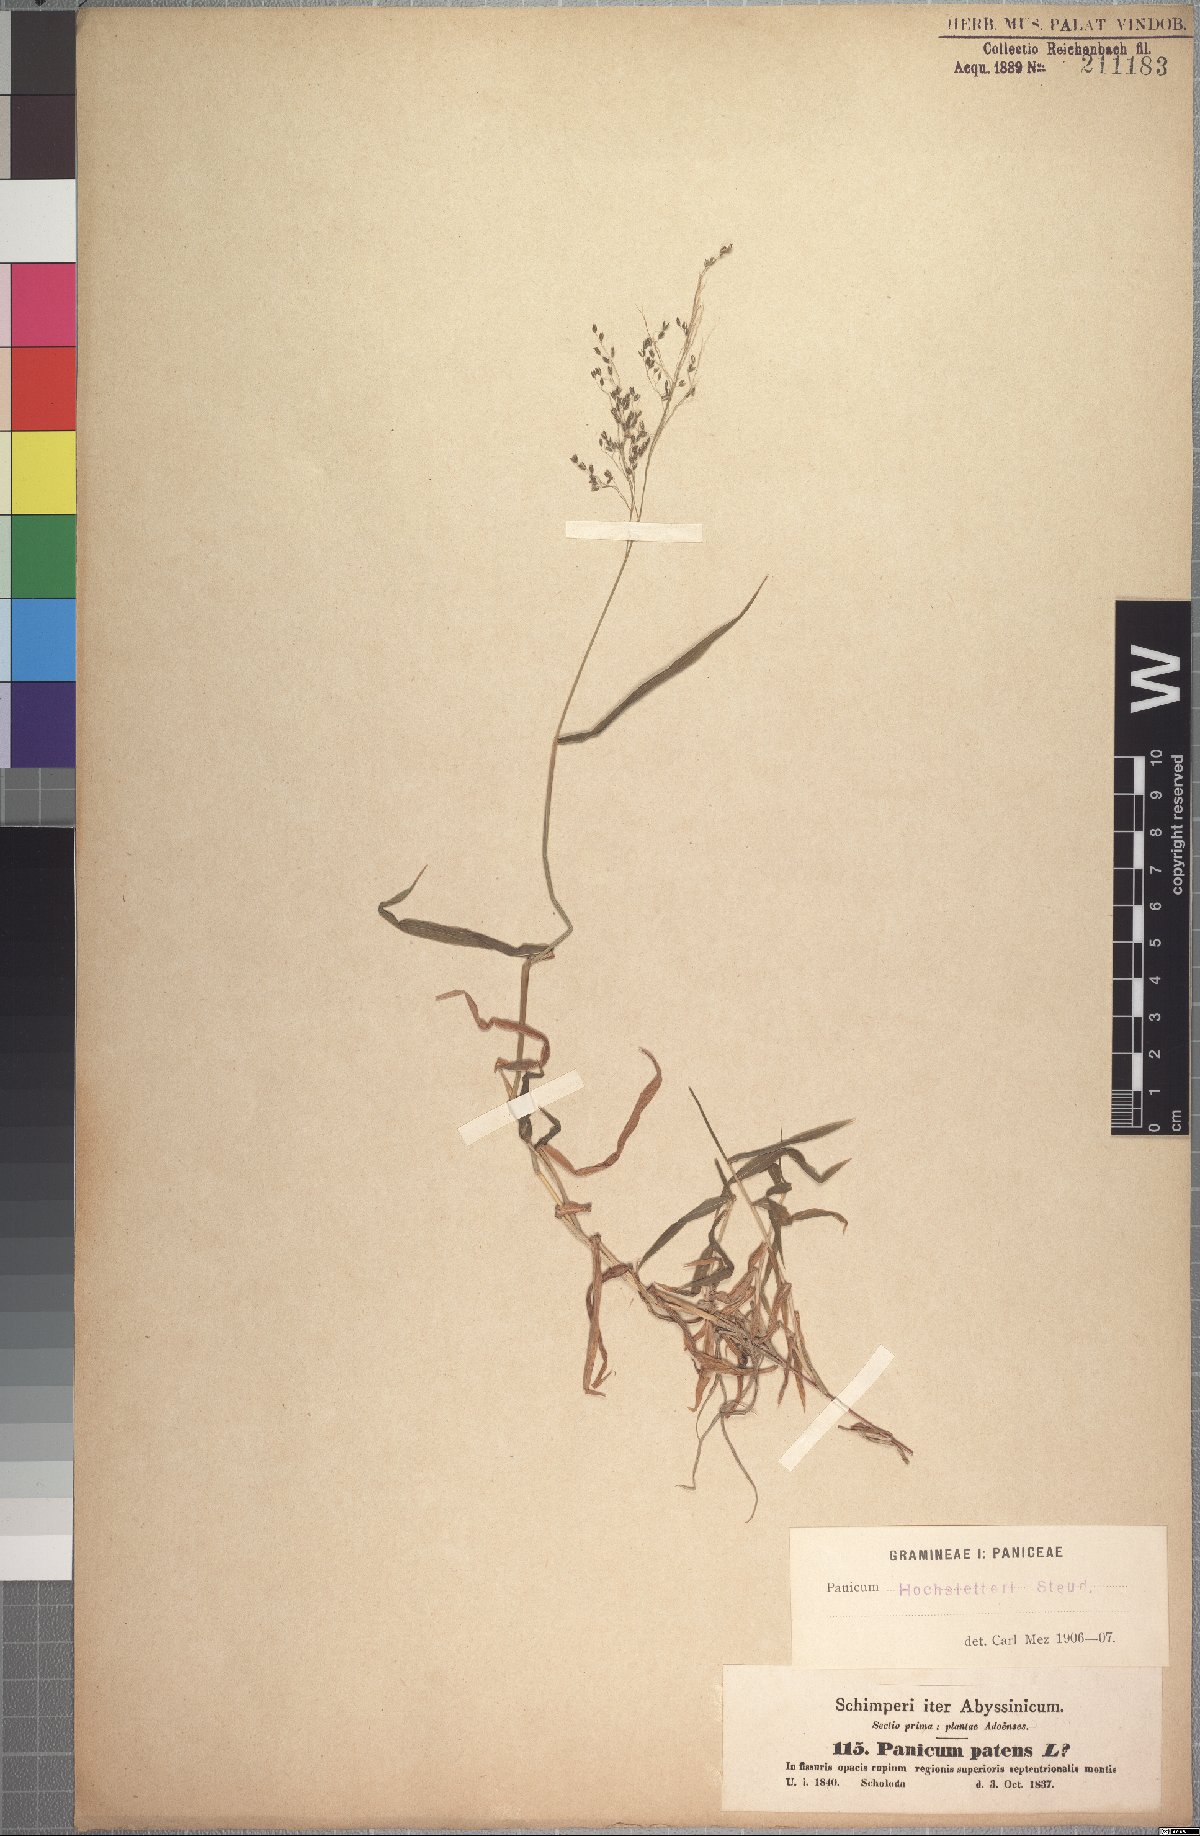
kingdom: Plantae
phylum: Tracheophyta
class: Liliopsida
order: Poales
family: Poaceae
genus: Panicum
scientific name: Panicum hochstetteri
